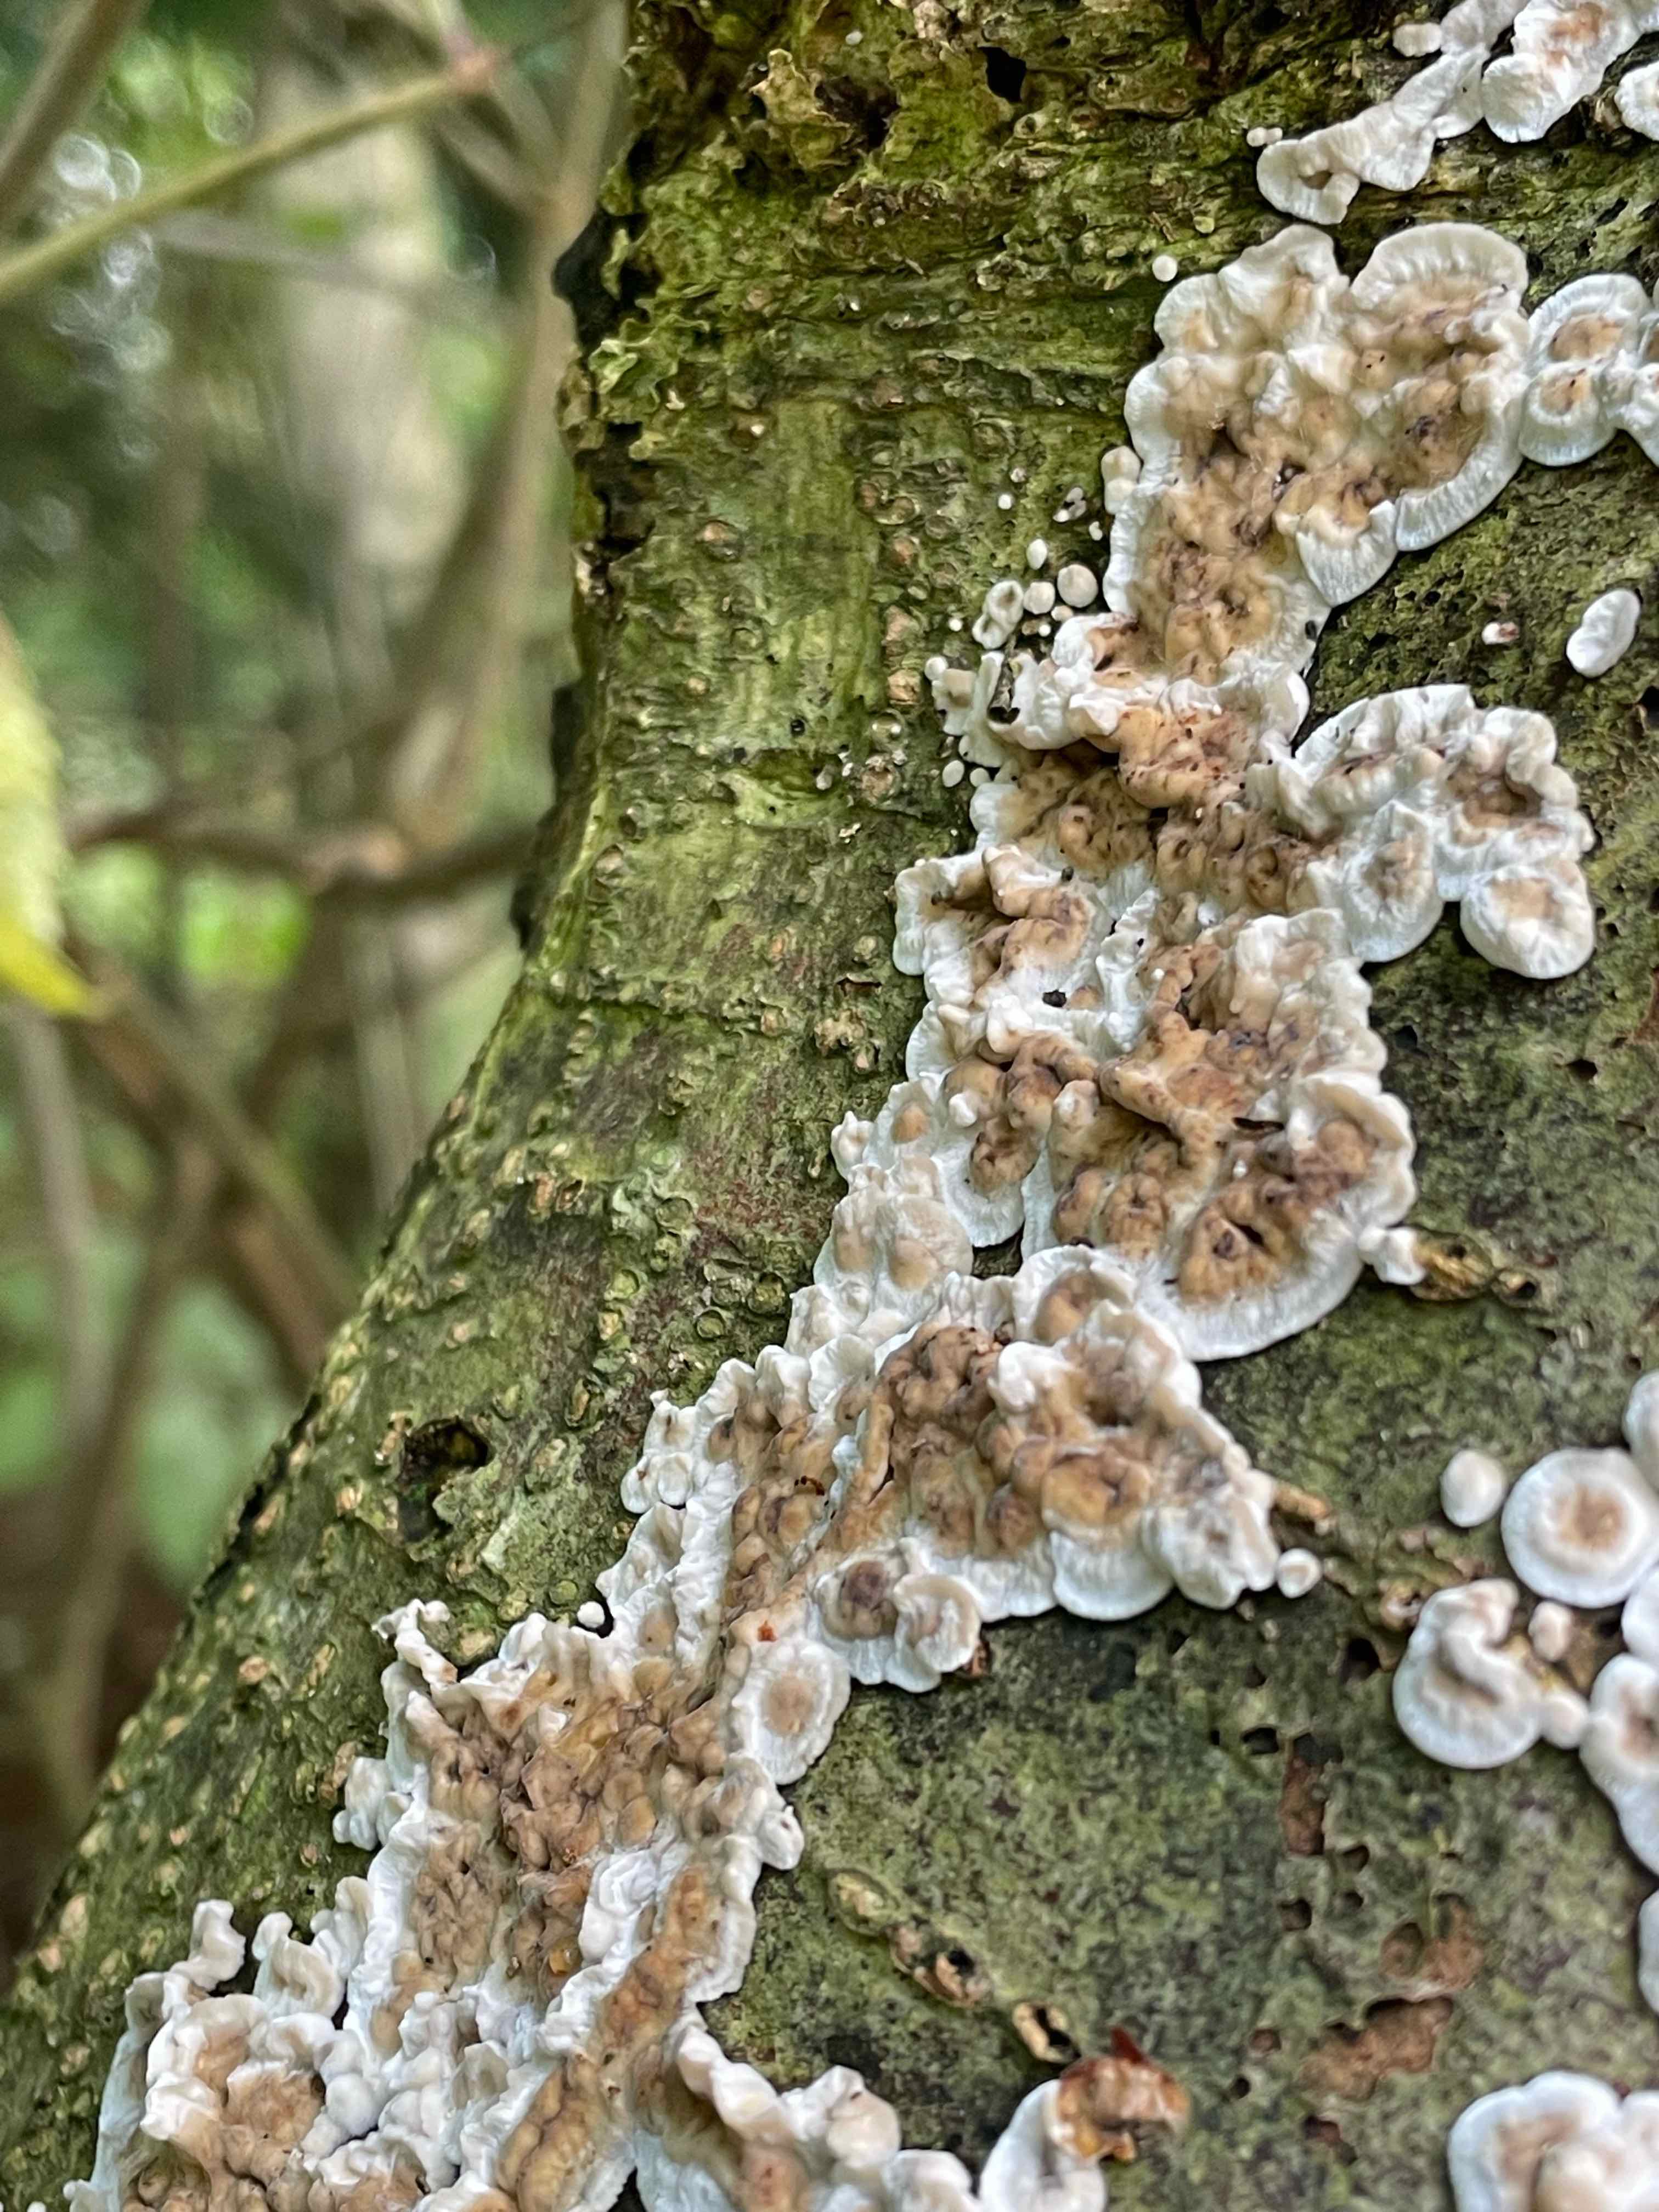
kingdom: Fungi
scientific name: Fungi
